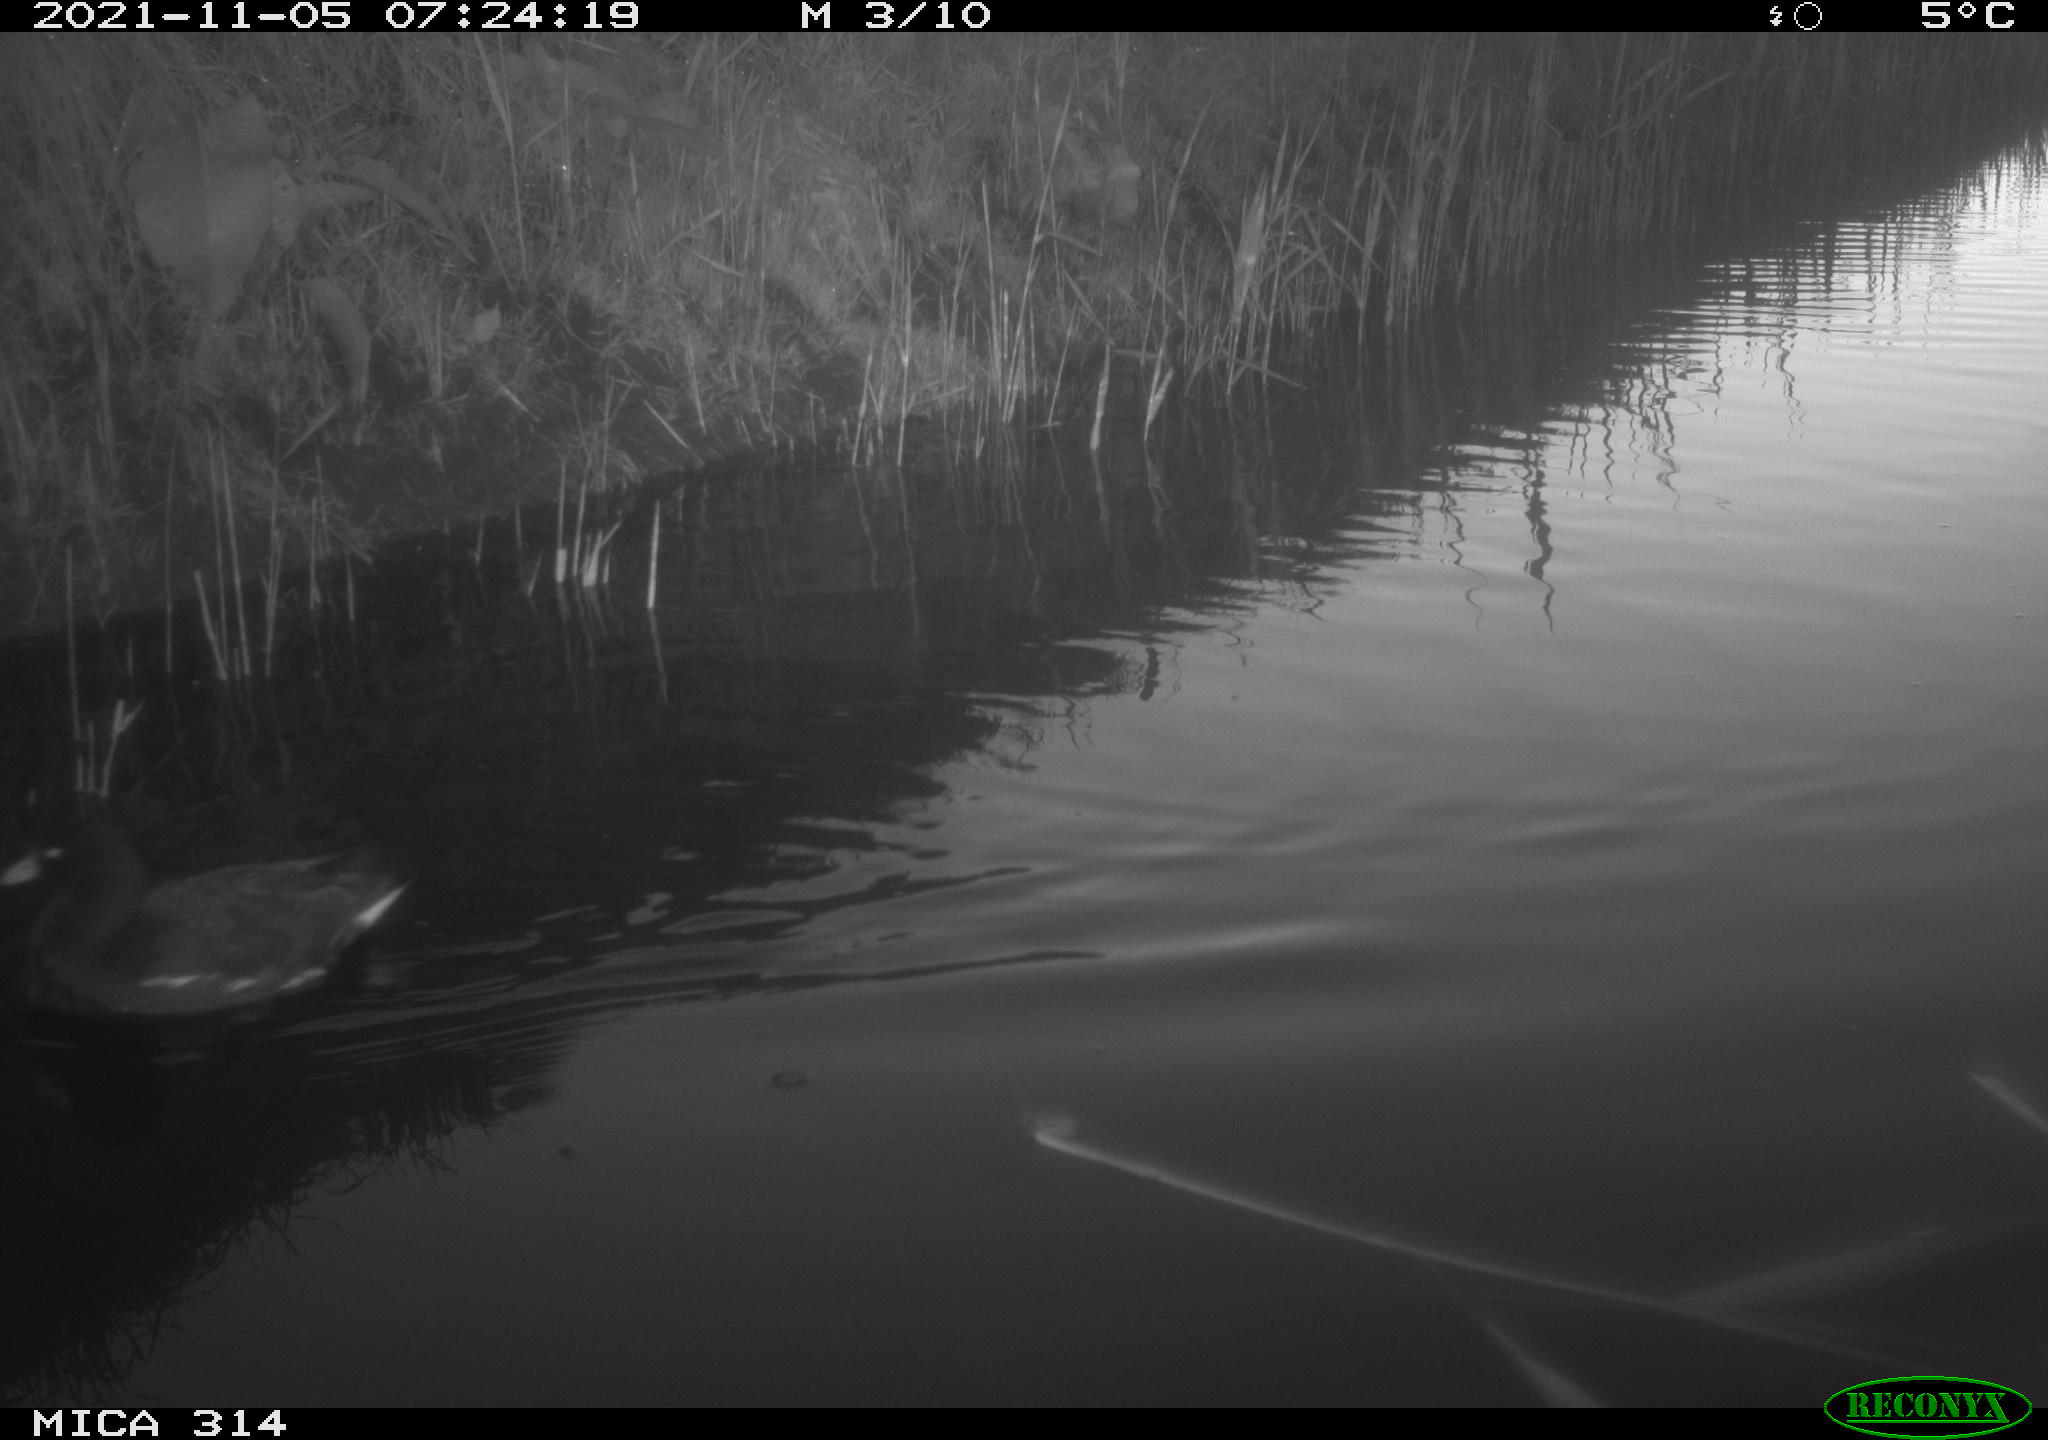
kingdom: Animalia
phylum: Chordata
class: Aves
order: Gruiformes
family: Rallidae
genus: Gallinula
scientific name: Gallinula chloropus
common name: Common moorhen
